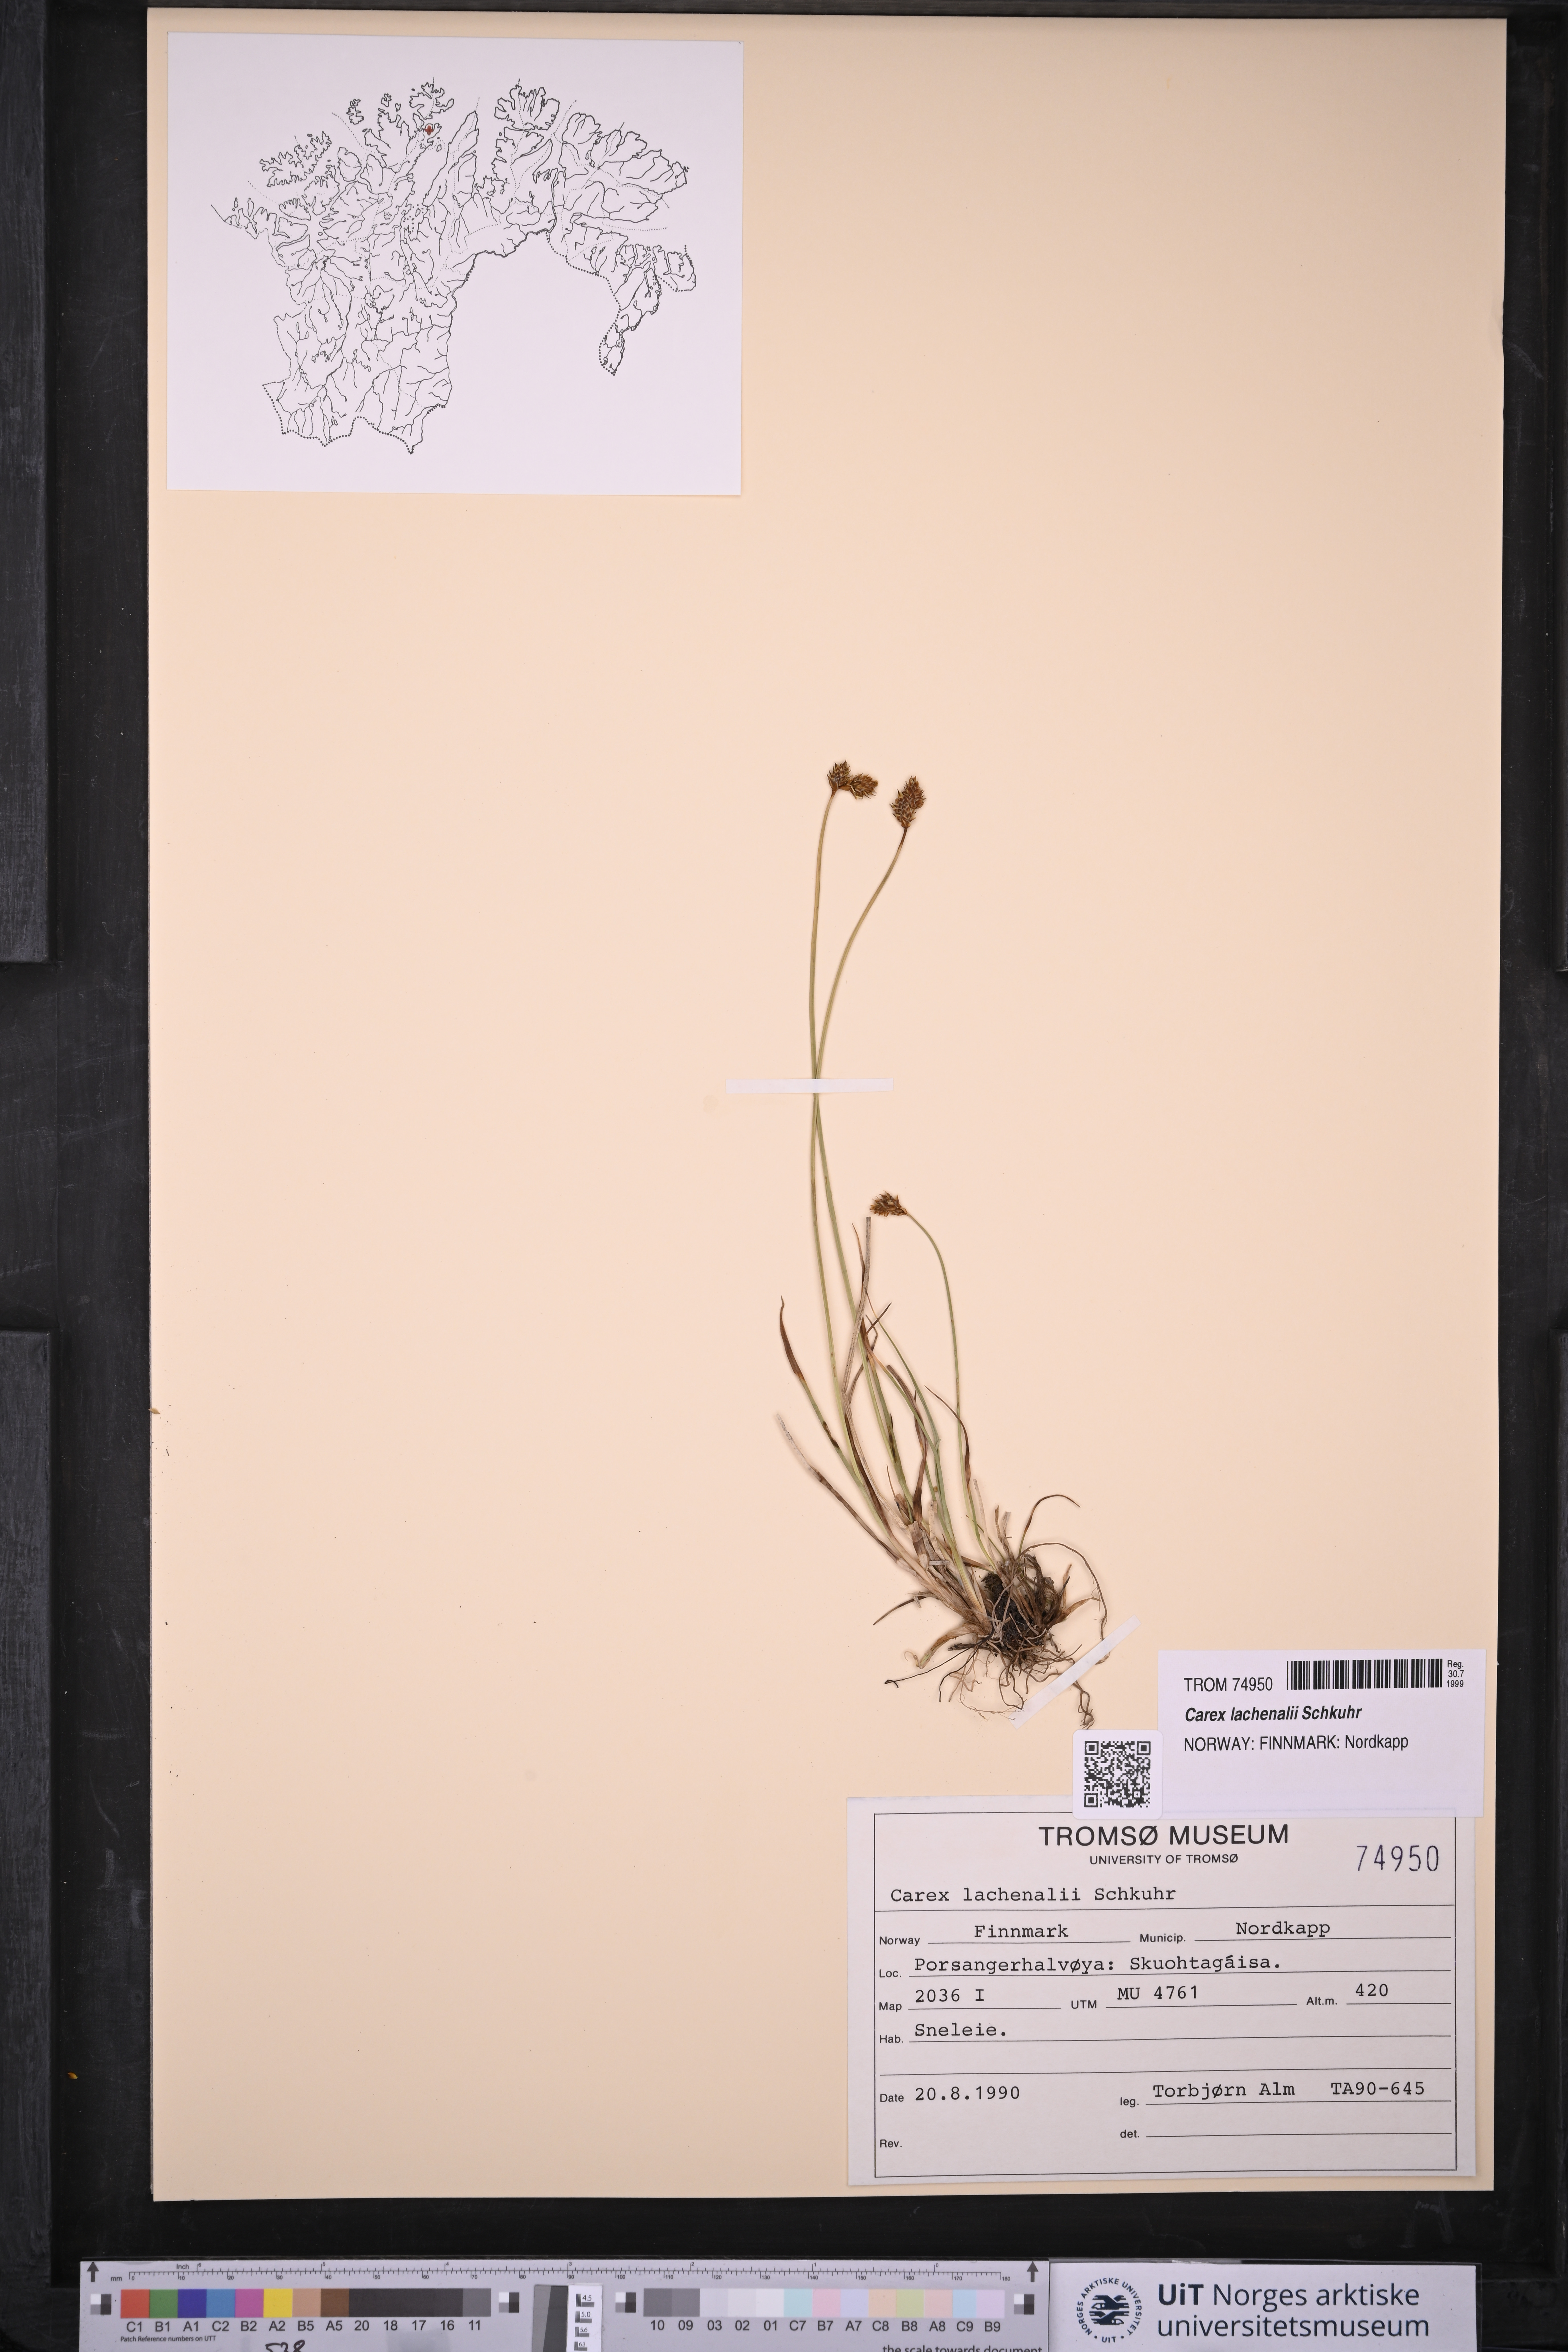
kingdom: Plantae
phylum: Tracheophyta
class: Liliopsida
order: Poales
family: Cyperaceae
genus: Carex
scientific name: Carex lachenalii
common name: Hare's-foot sedge
